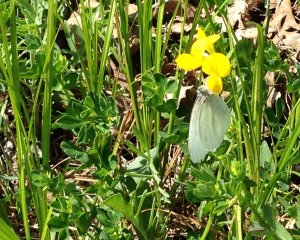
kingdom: Animalia
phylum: Arthropoda
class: Insecta
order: Lepidoptera
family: Pieridae
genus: Pieris
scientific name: Pieris oleracea
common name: Mustard White
